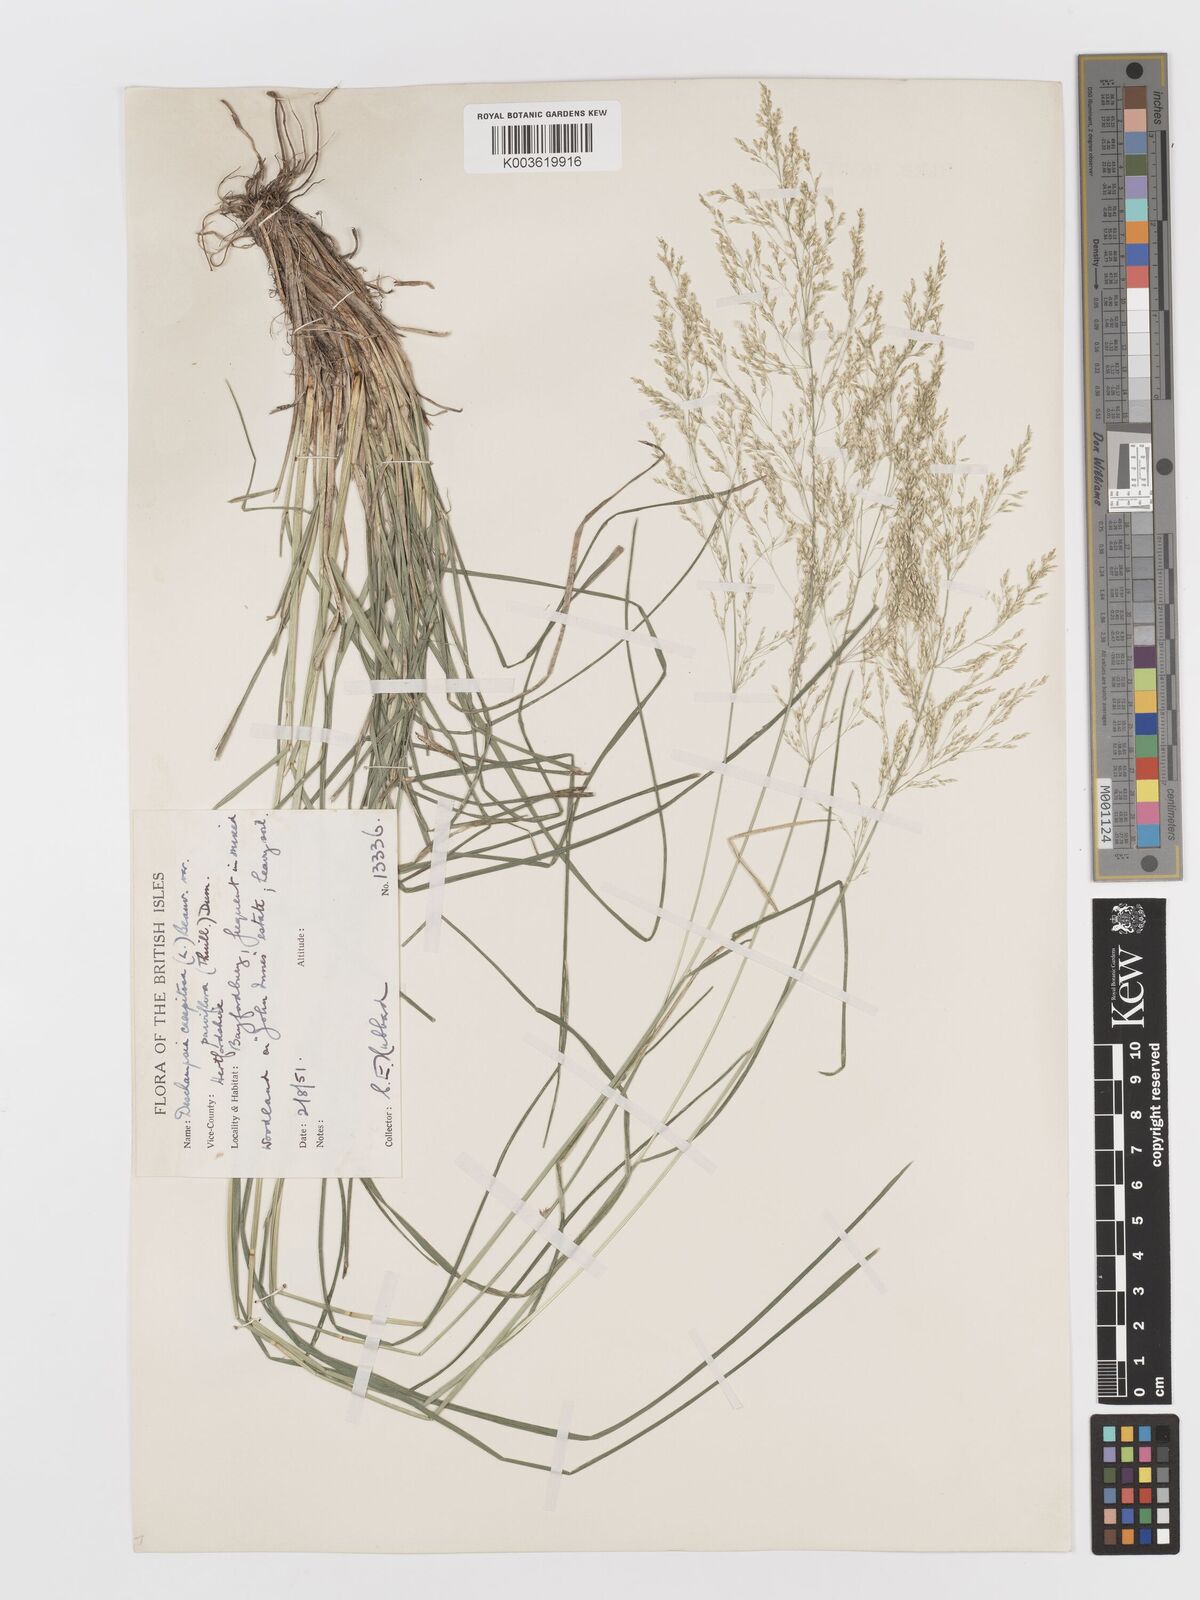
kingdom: Plantae
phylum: Tracheophyta
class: Liliopsida
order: Poales
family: Poaceae
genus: Deschampsia
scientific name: Deschampsia cespitosa
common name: Tufted hair-grass
